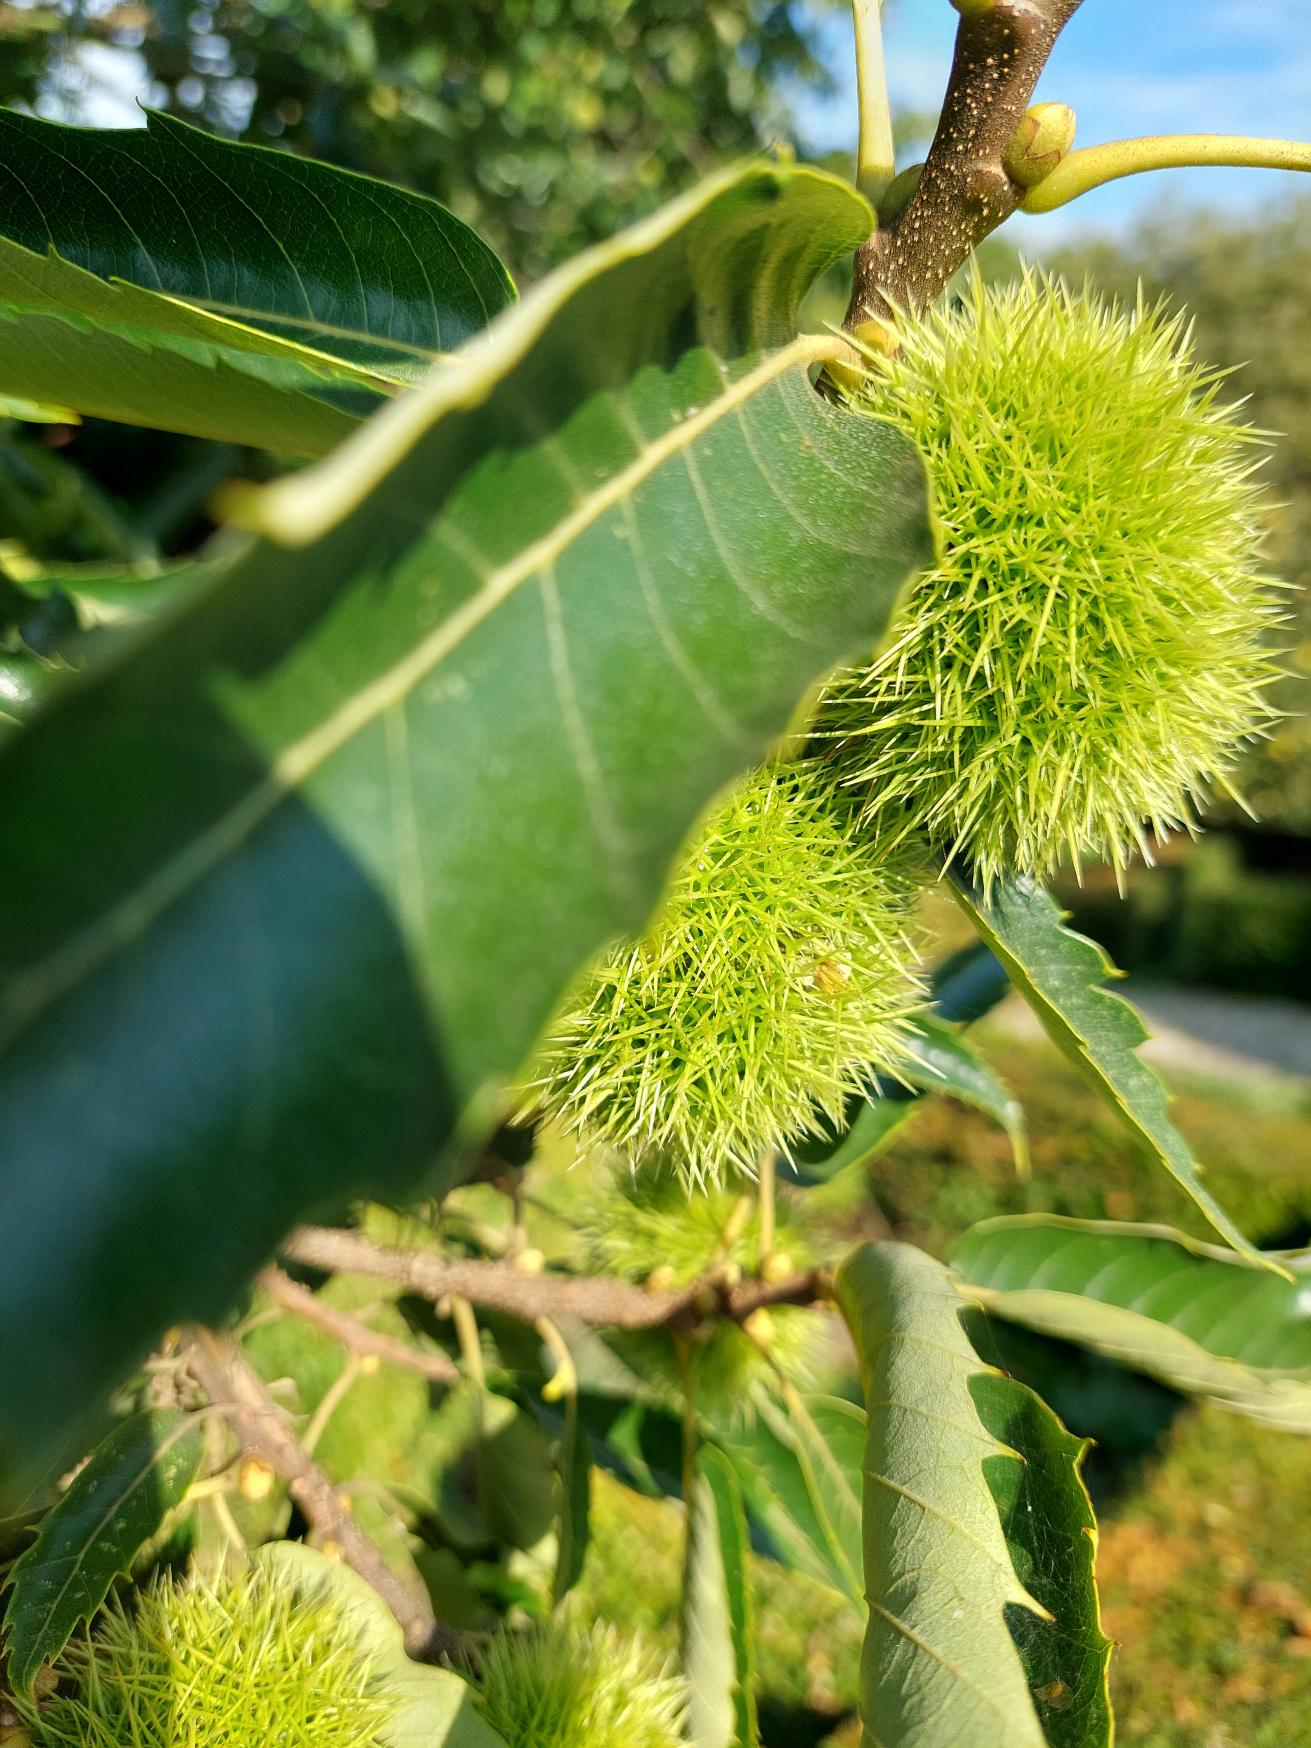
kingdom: Plantae
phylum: Tracheophyta
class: Magnoliopsida
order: Fagales
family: Fagaceae
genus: Castanea
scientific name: Castanea sativa
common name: Ægte kastanie
